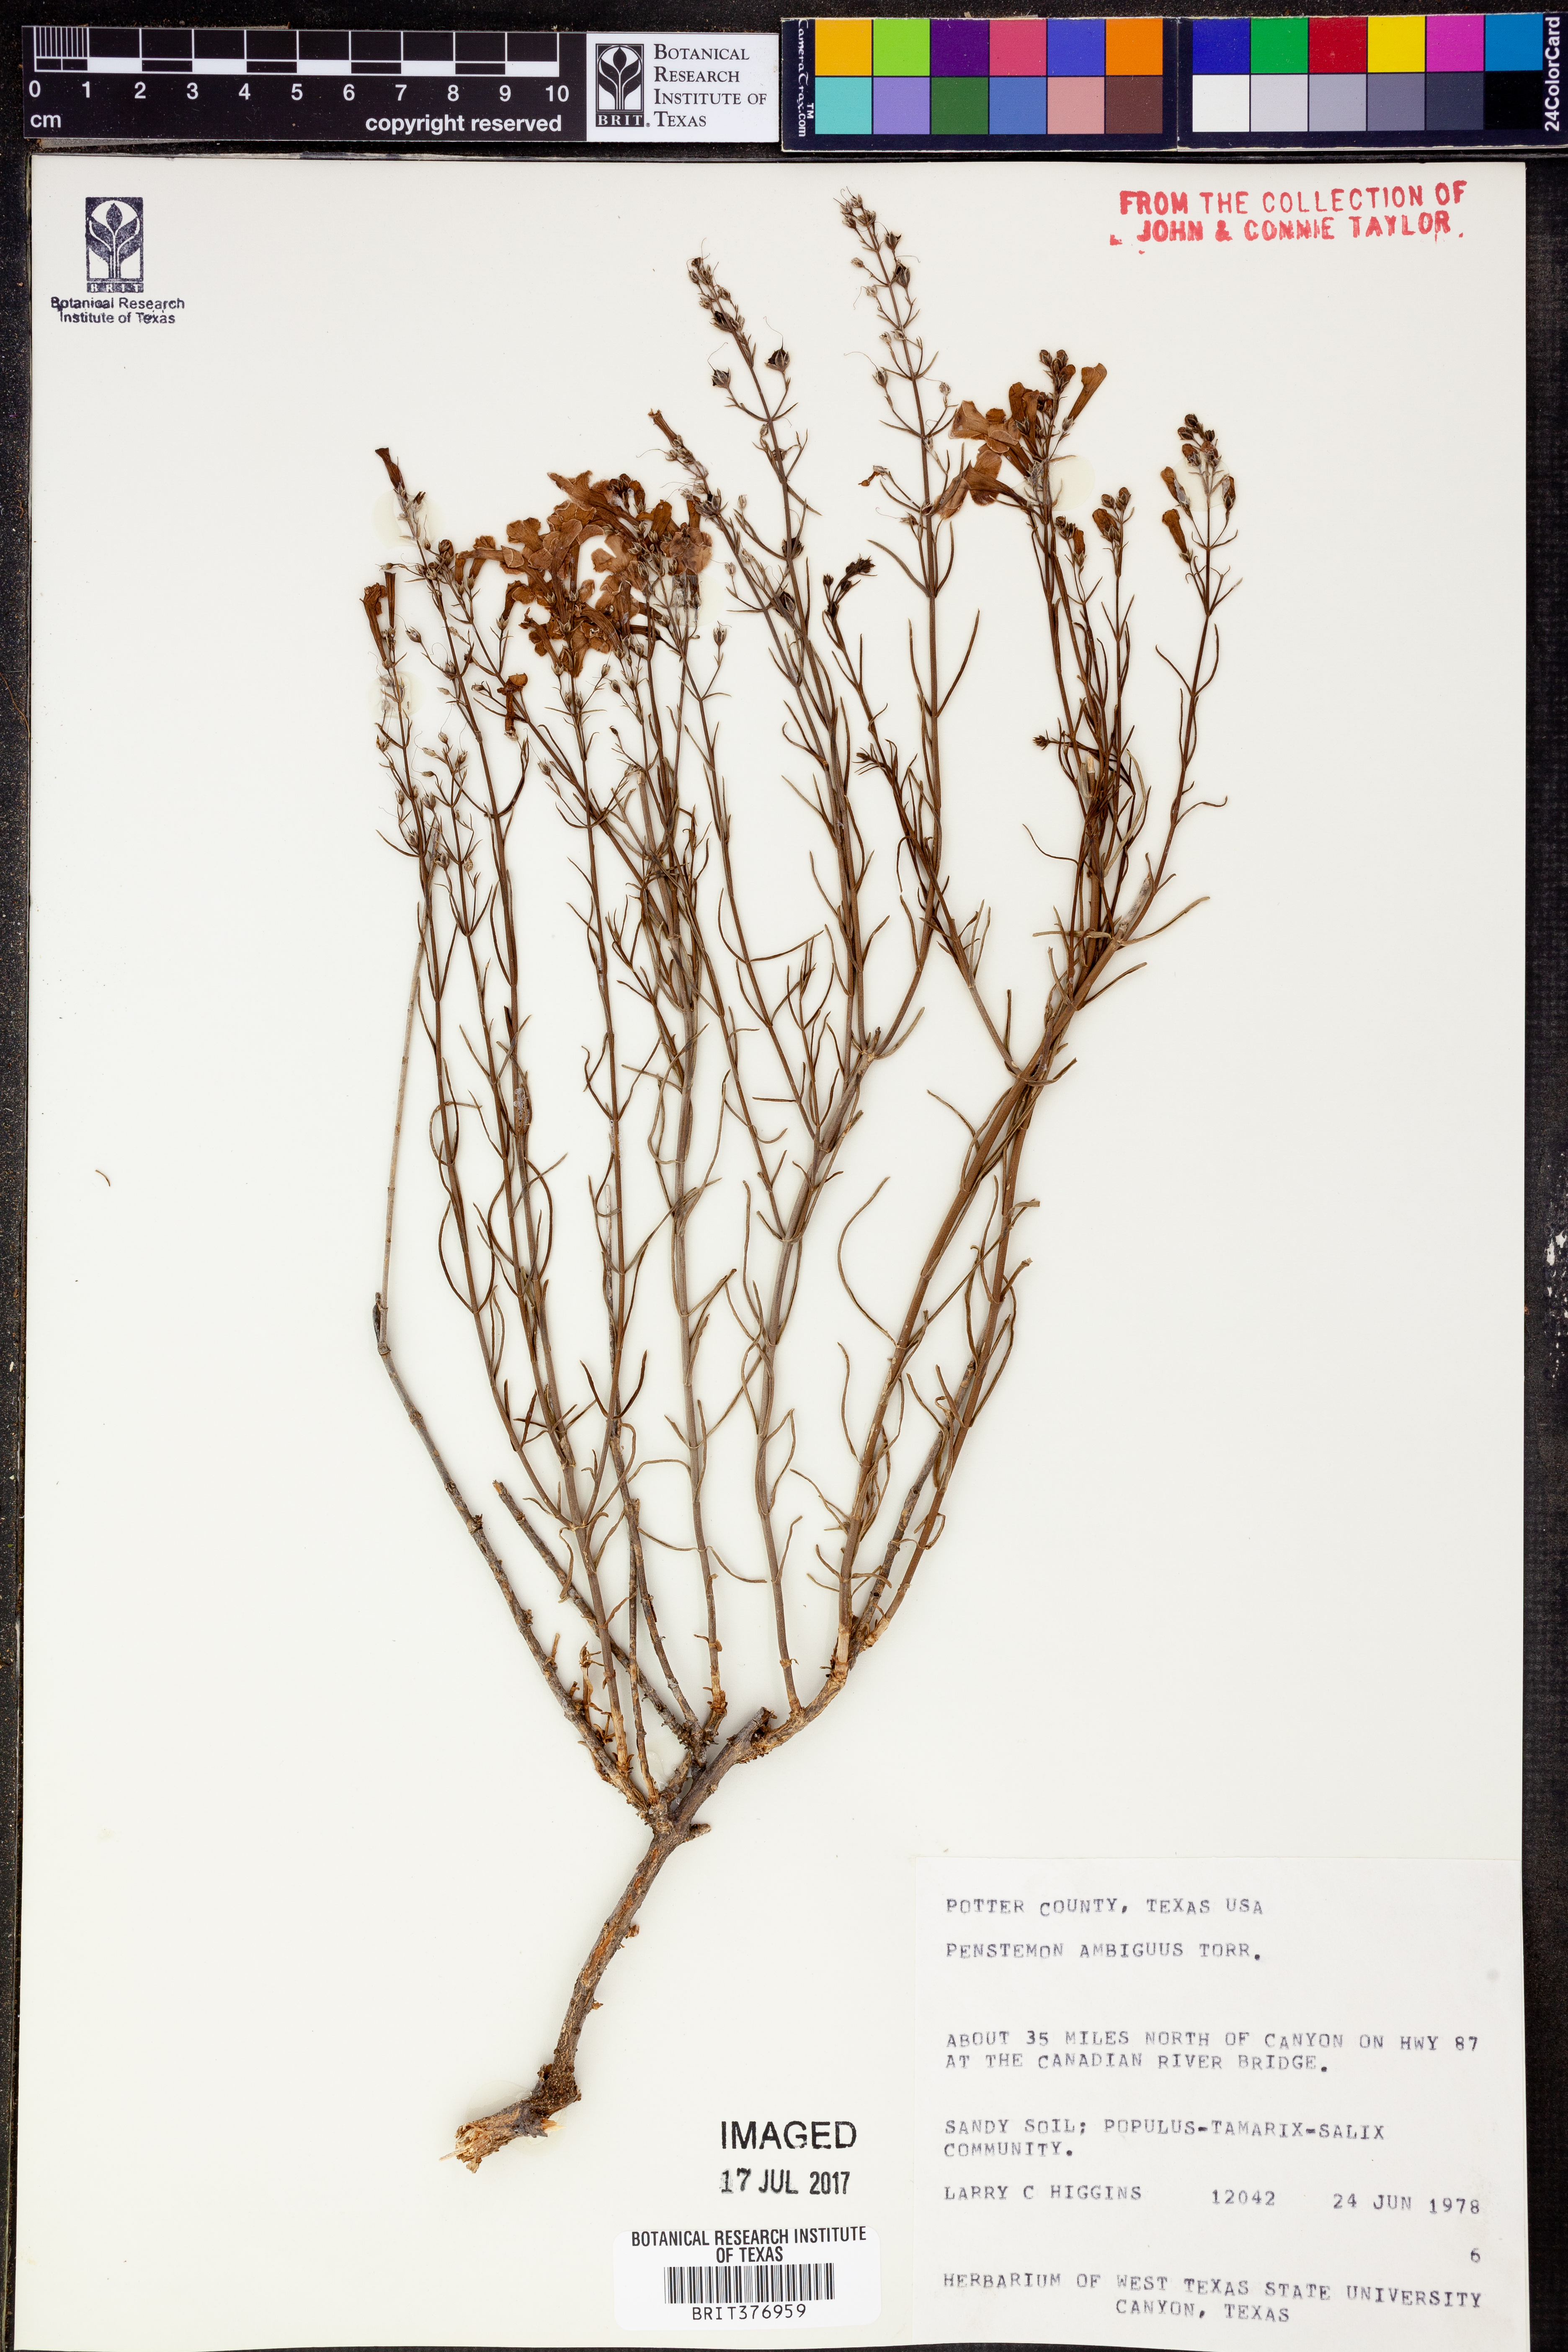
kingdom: Plantae
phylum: Tracheophyta
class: Magnoliopsida
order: Lamiales
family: Plantaginaceae
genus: Penstemon
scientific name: Penstemon ambiguus
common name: Bush penstemon
